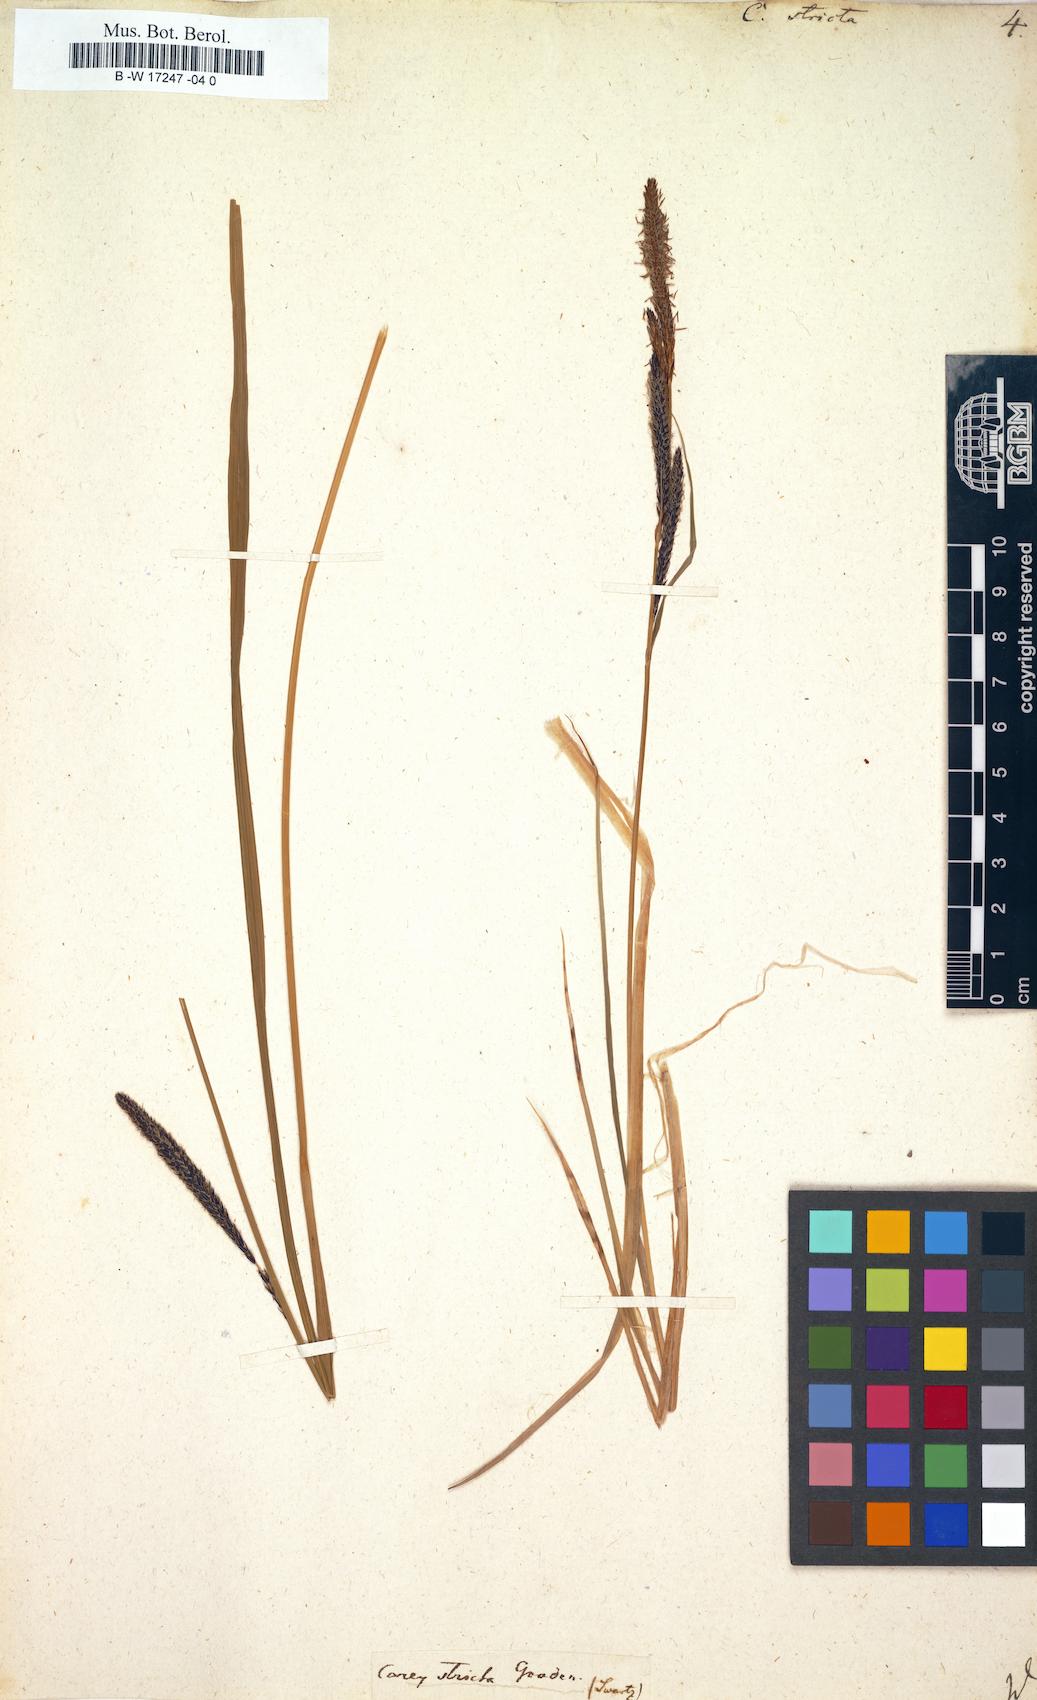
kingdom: Plantae
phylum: Tracheophyta
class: Liliopsida
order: Poales
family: Cyperaceae
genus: Carex
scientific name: Carex stricta
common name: Hummock sedge
